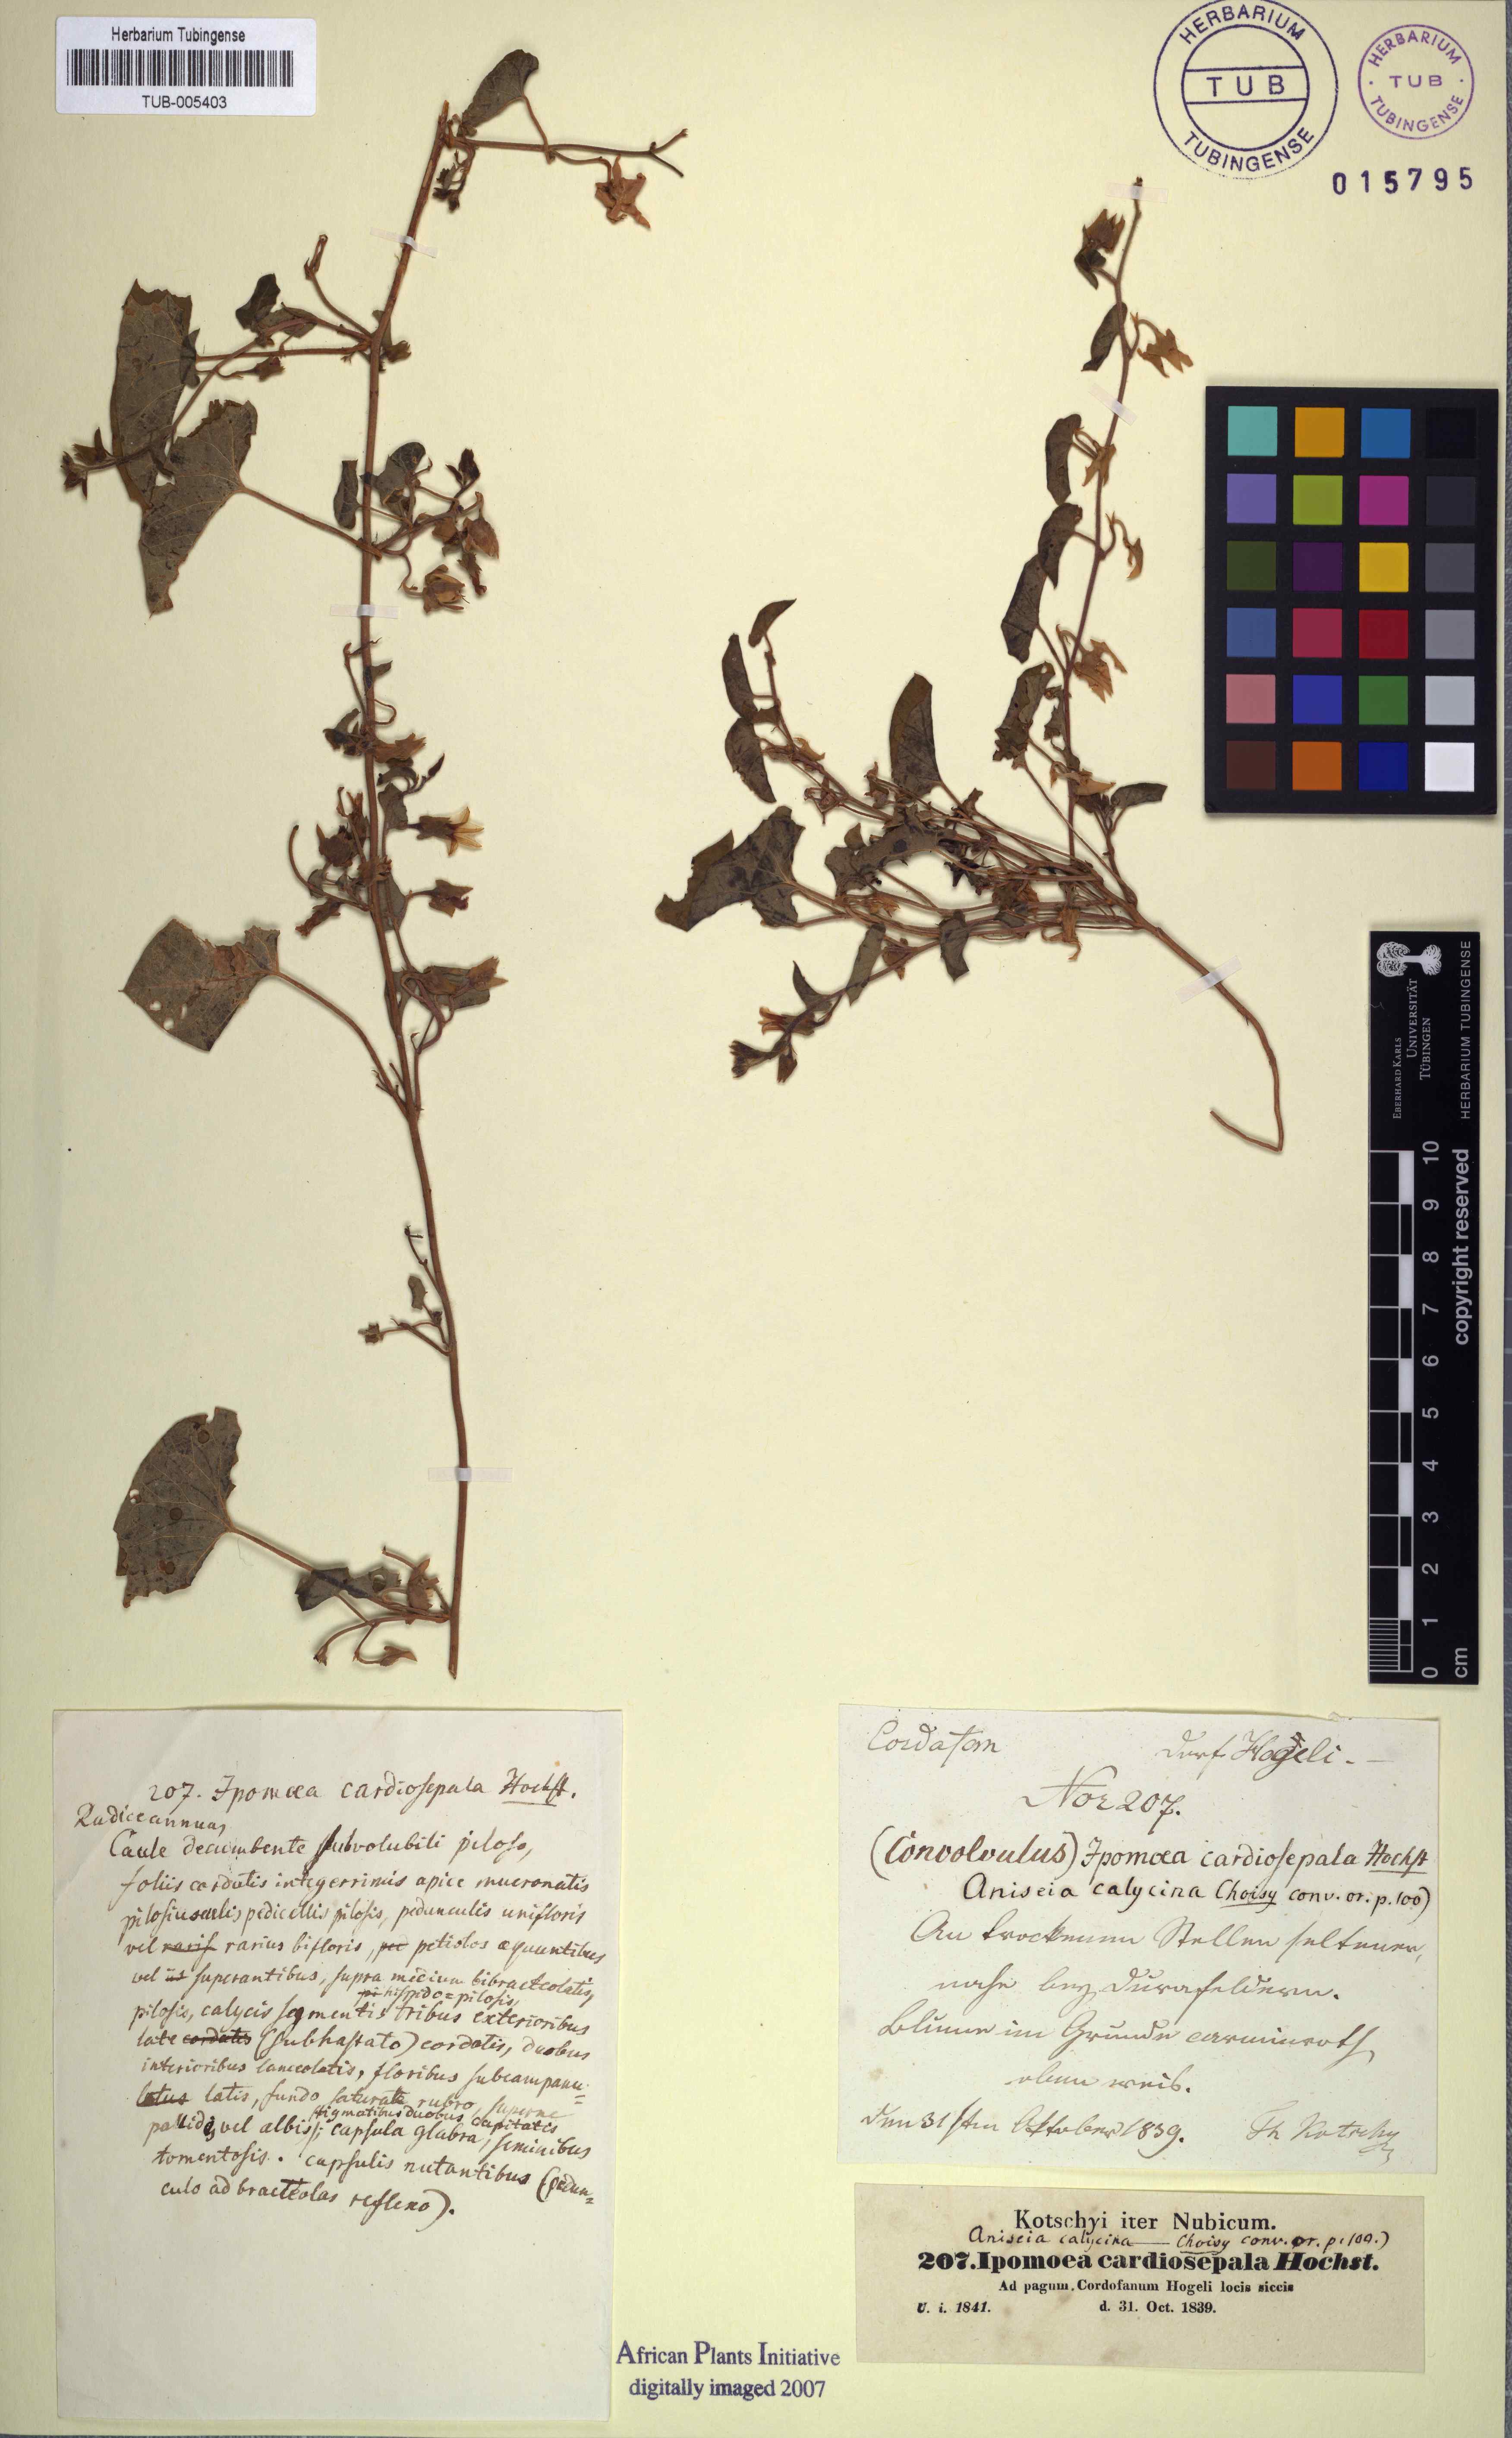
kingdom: Plantae
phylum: Tracheophyta
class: Magnoliopsida
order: Solanales
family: Convolvulaceae
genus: Ipomoea
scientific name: Ipomoea biflora
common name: Bellvine
